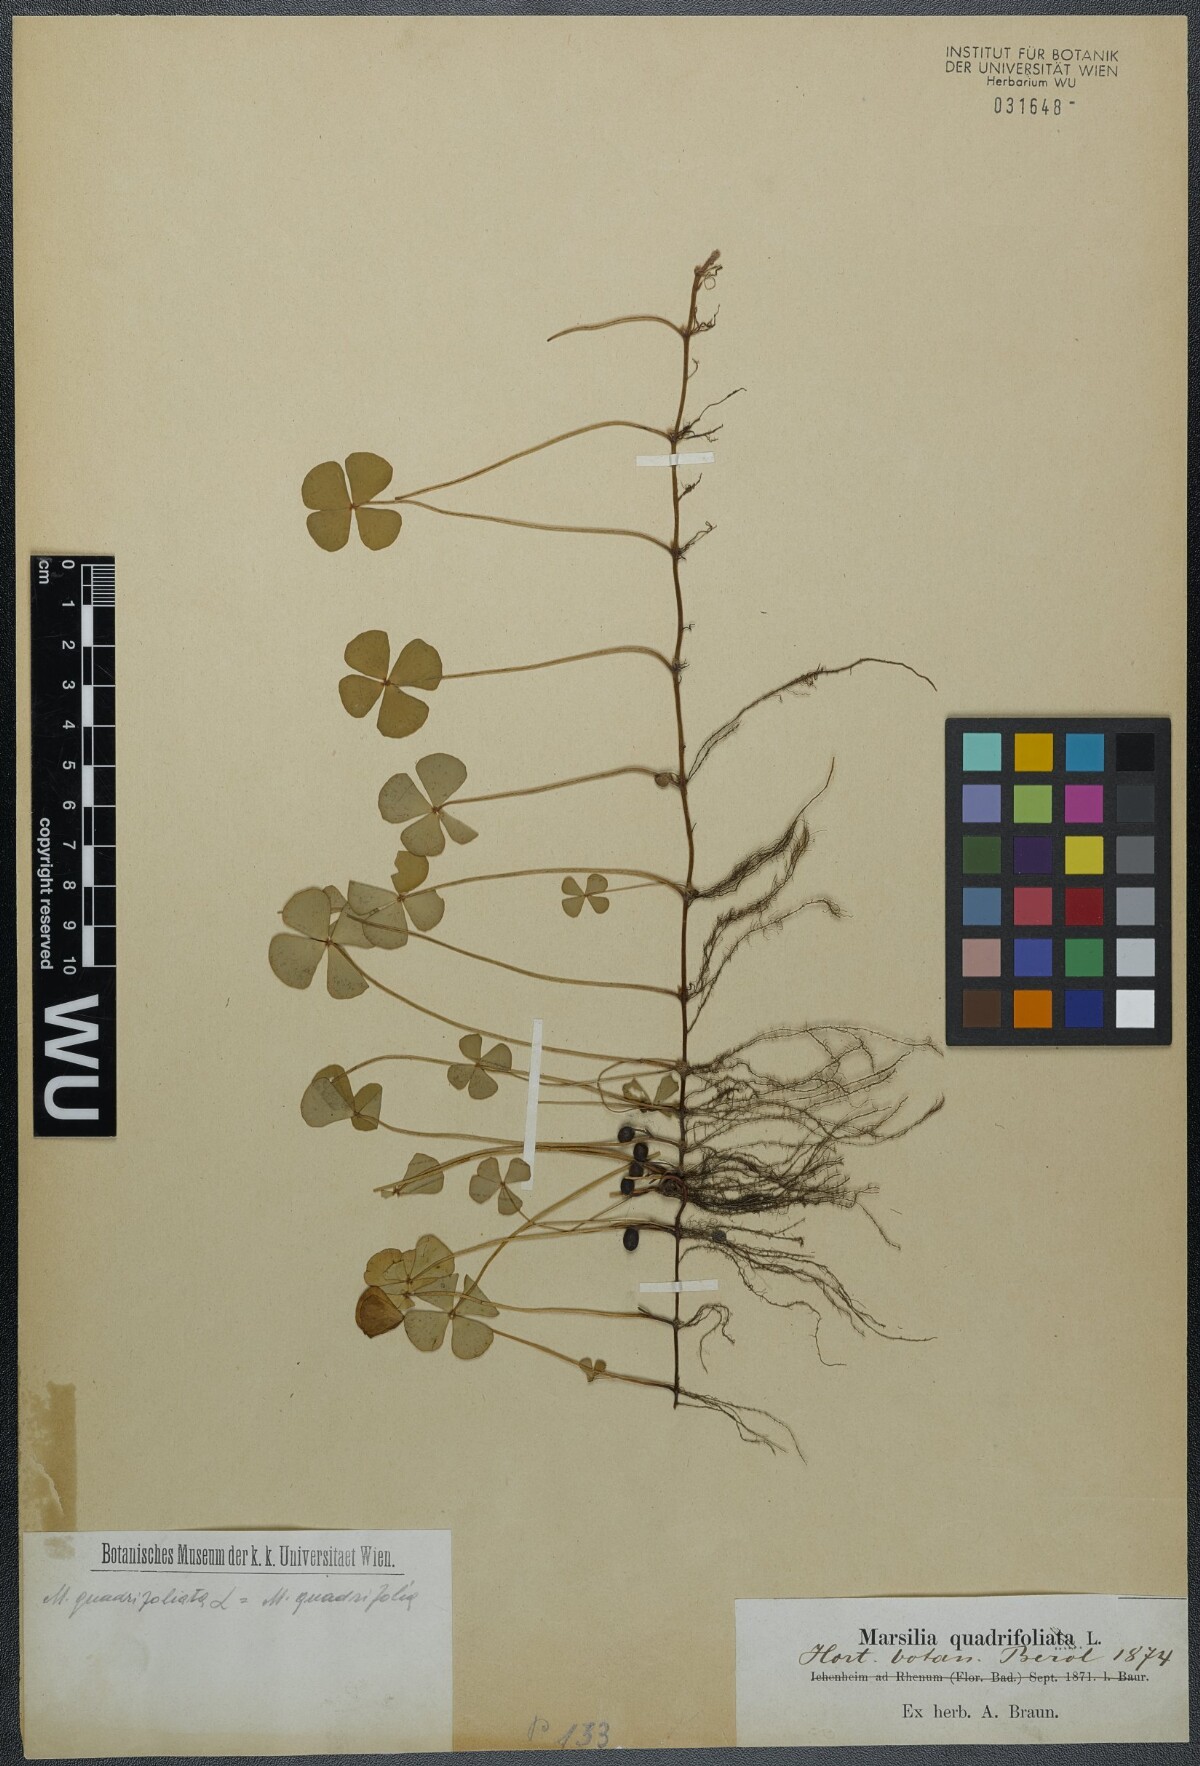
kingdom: Plantae
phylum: Tracheophyta
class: Polypodiopsida
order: Salviniales
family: Marsileaceae
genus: Marsilea
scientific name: Marsilea quadrifolia
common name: Water shamrock
